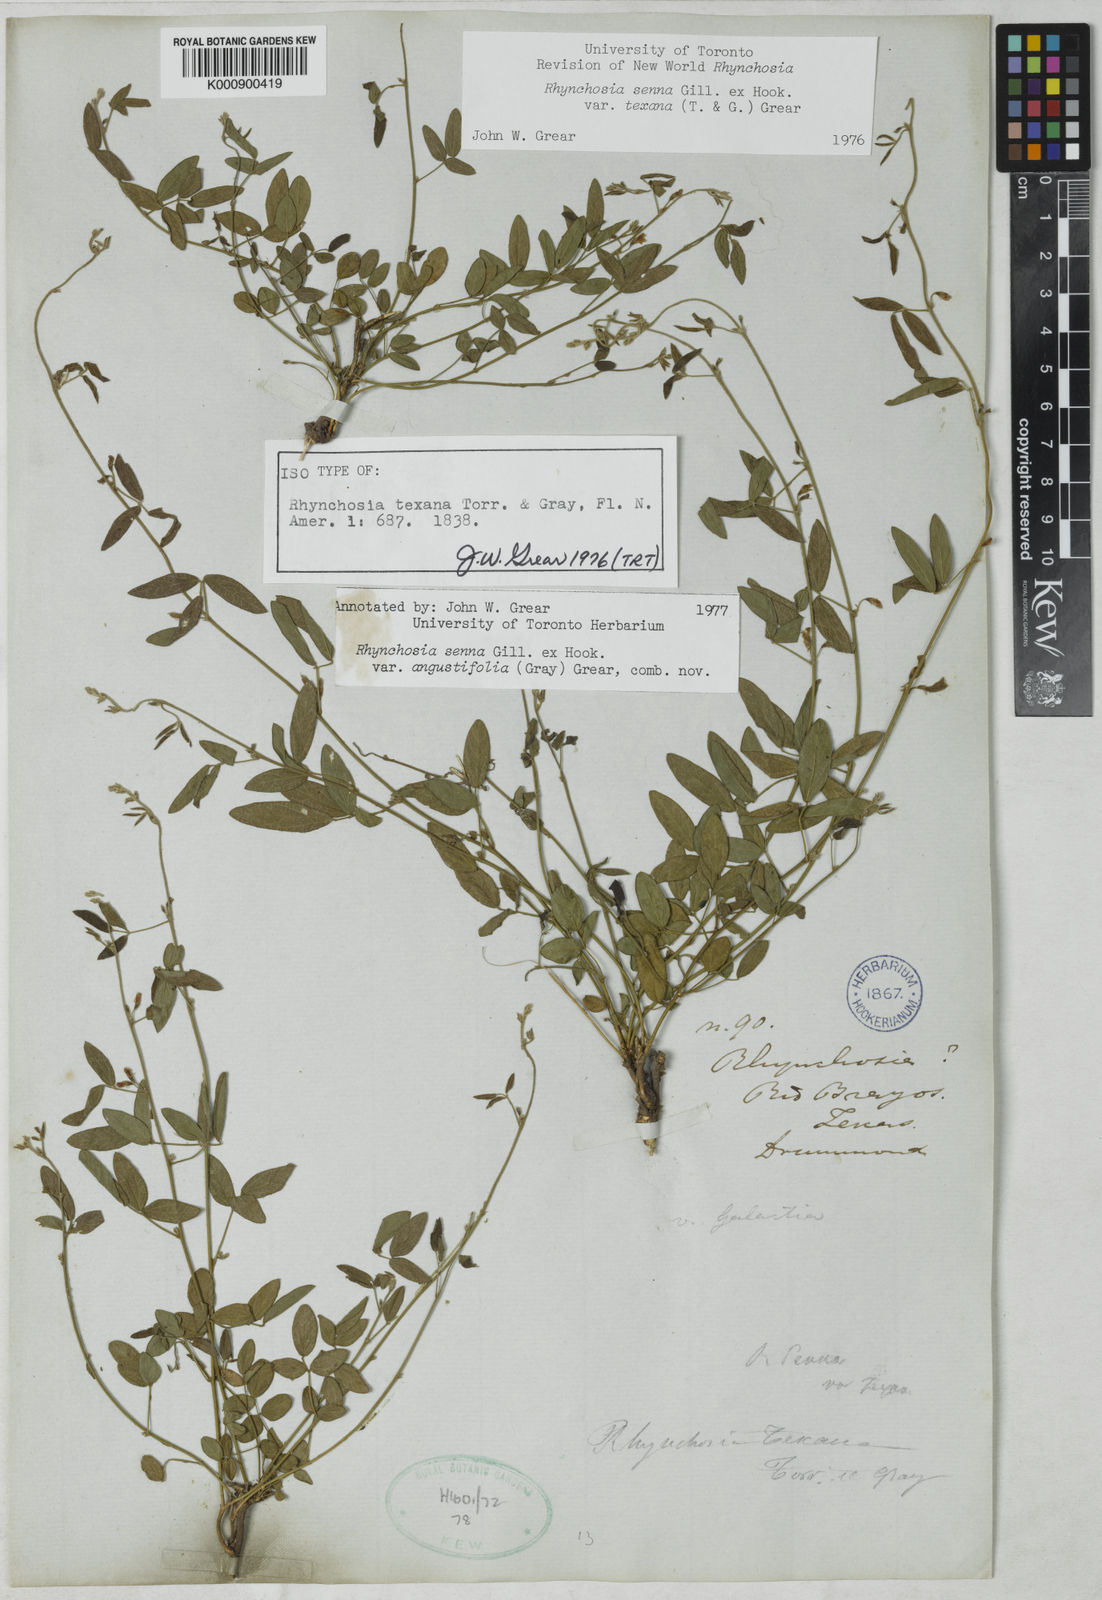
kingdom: Plantae
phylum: Tracheophyta
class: Magnoliopsida
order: Fabales
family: Fabaceae
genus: Rhynchosia
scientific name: Rhynchosia senna
